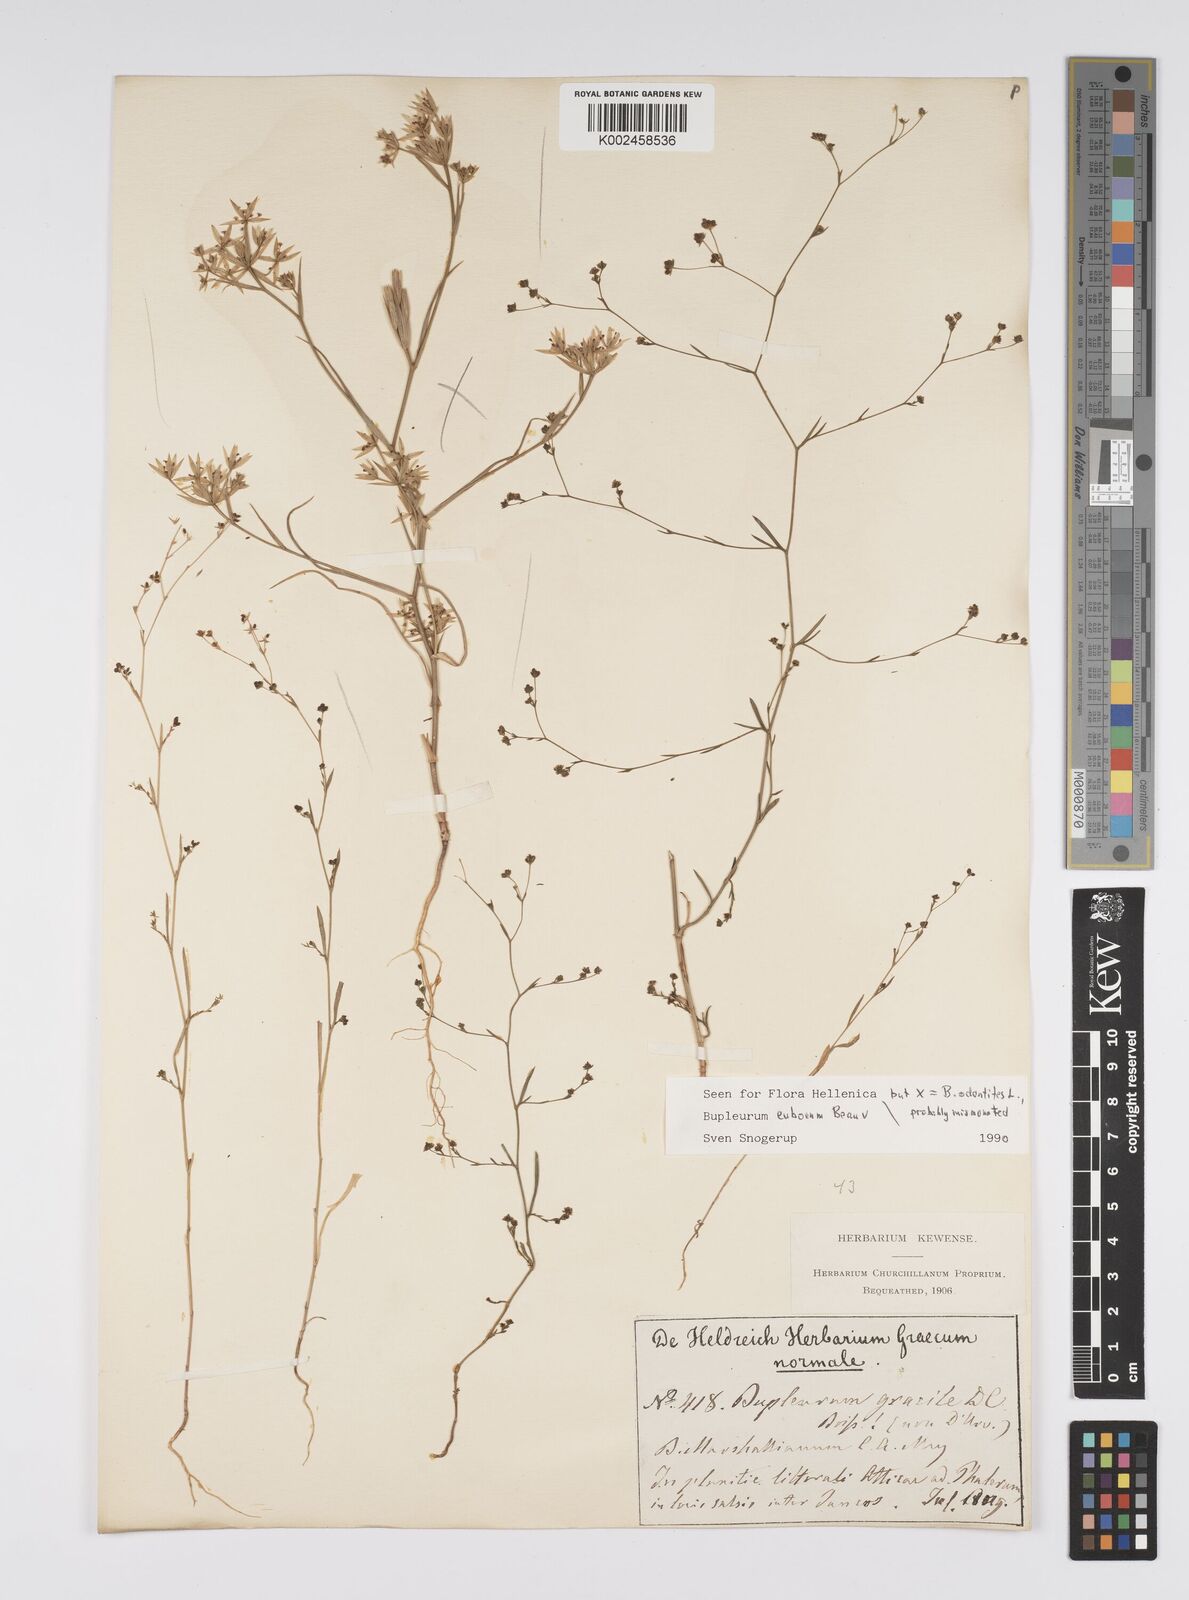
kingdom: Plantae
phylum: Tracheophyta
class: Magnoliopsida
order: Apiales
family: Apiaceae
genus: Bupleurum
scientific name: Bupleurum tenuissimum
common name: Slender hare's-ear
